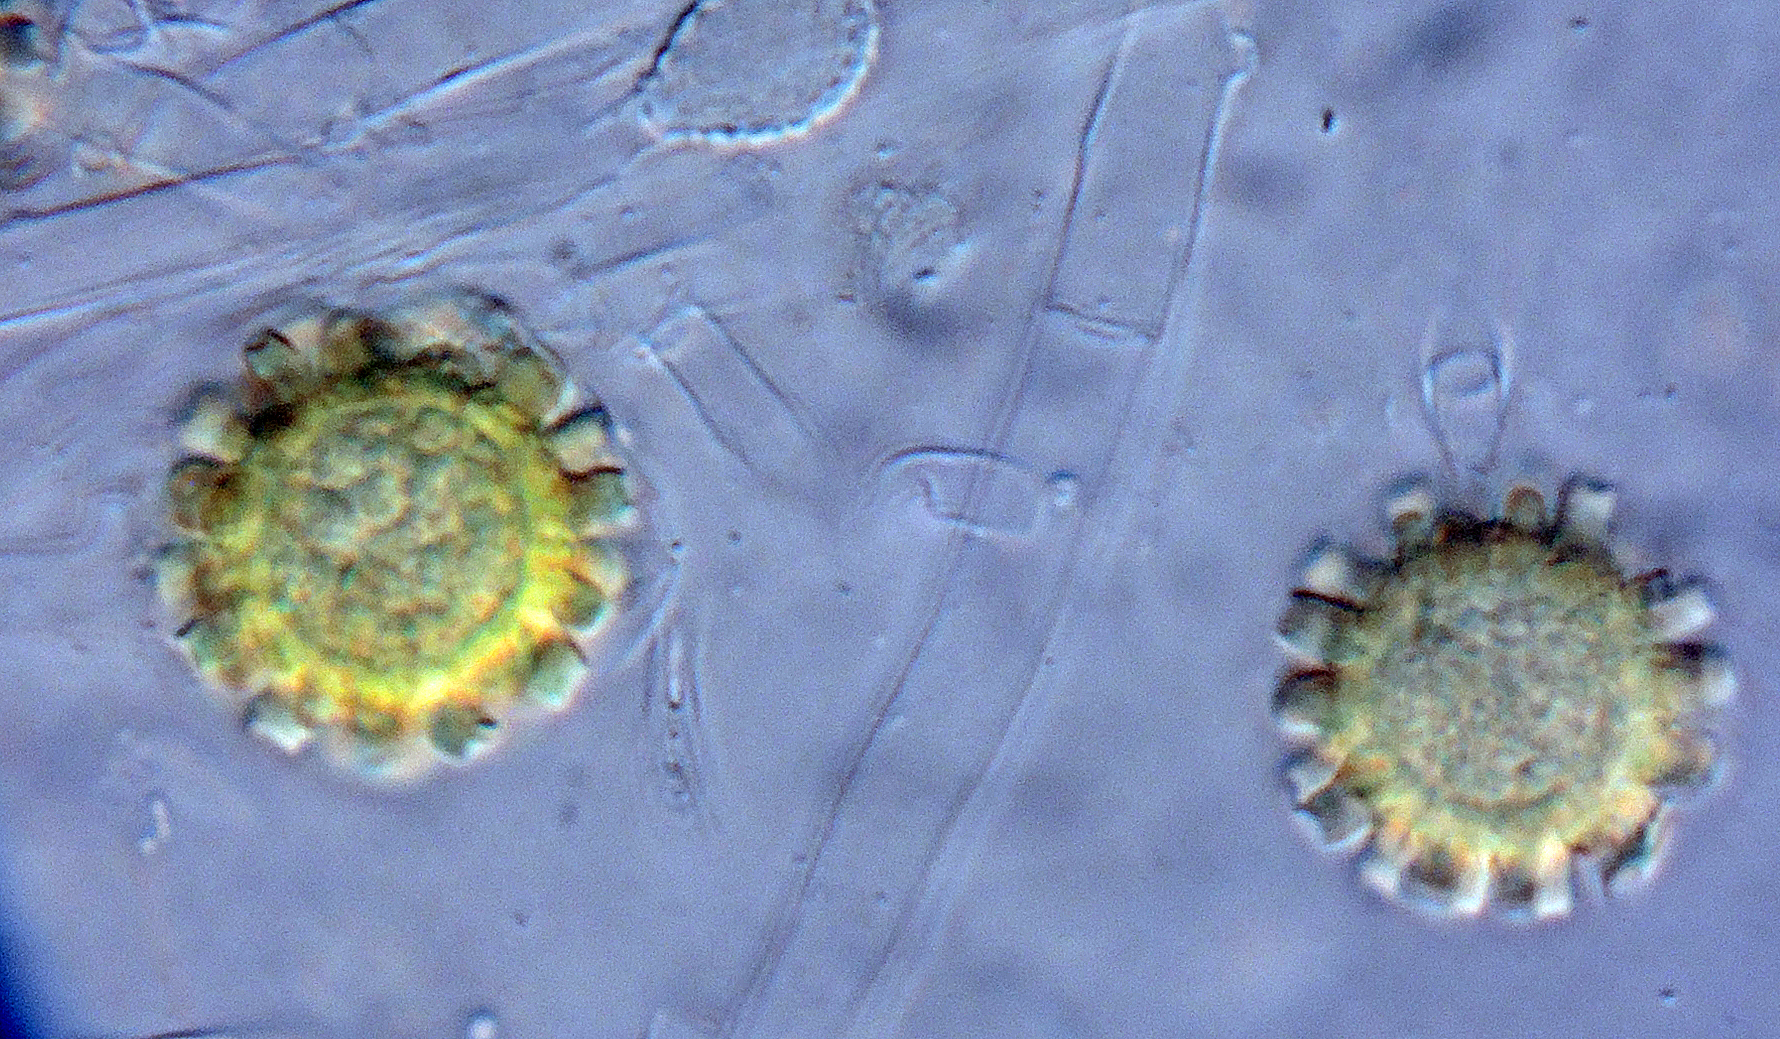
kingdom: Fungi
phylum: Ascomycota
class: Sordariomycetes
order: Hypocreales
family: Hypocreaceae
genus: Sepedonium
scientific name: Sepedonium chalcipori
